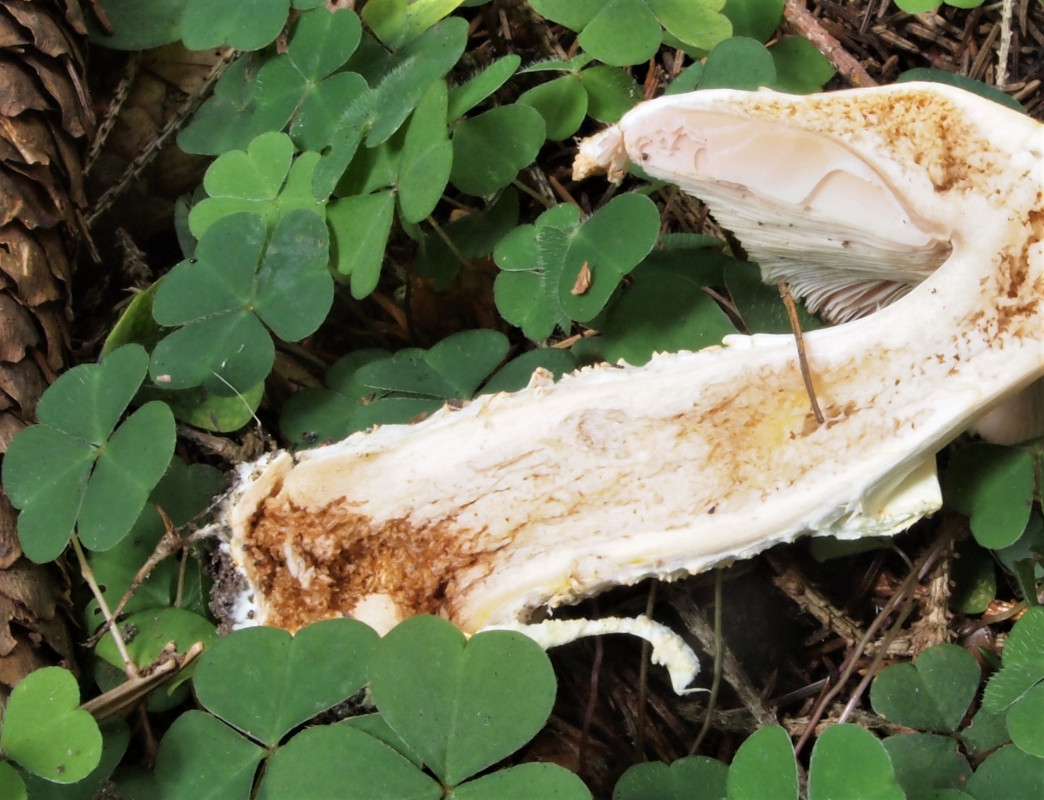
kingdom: Fungi
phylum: Basidiomycota
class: Agaricomycetes
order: Agaricales
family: Agaricaceae
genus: Agaricus
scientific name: Agaricus augustus
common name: prægtig champignon
